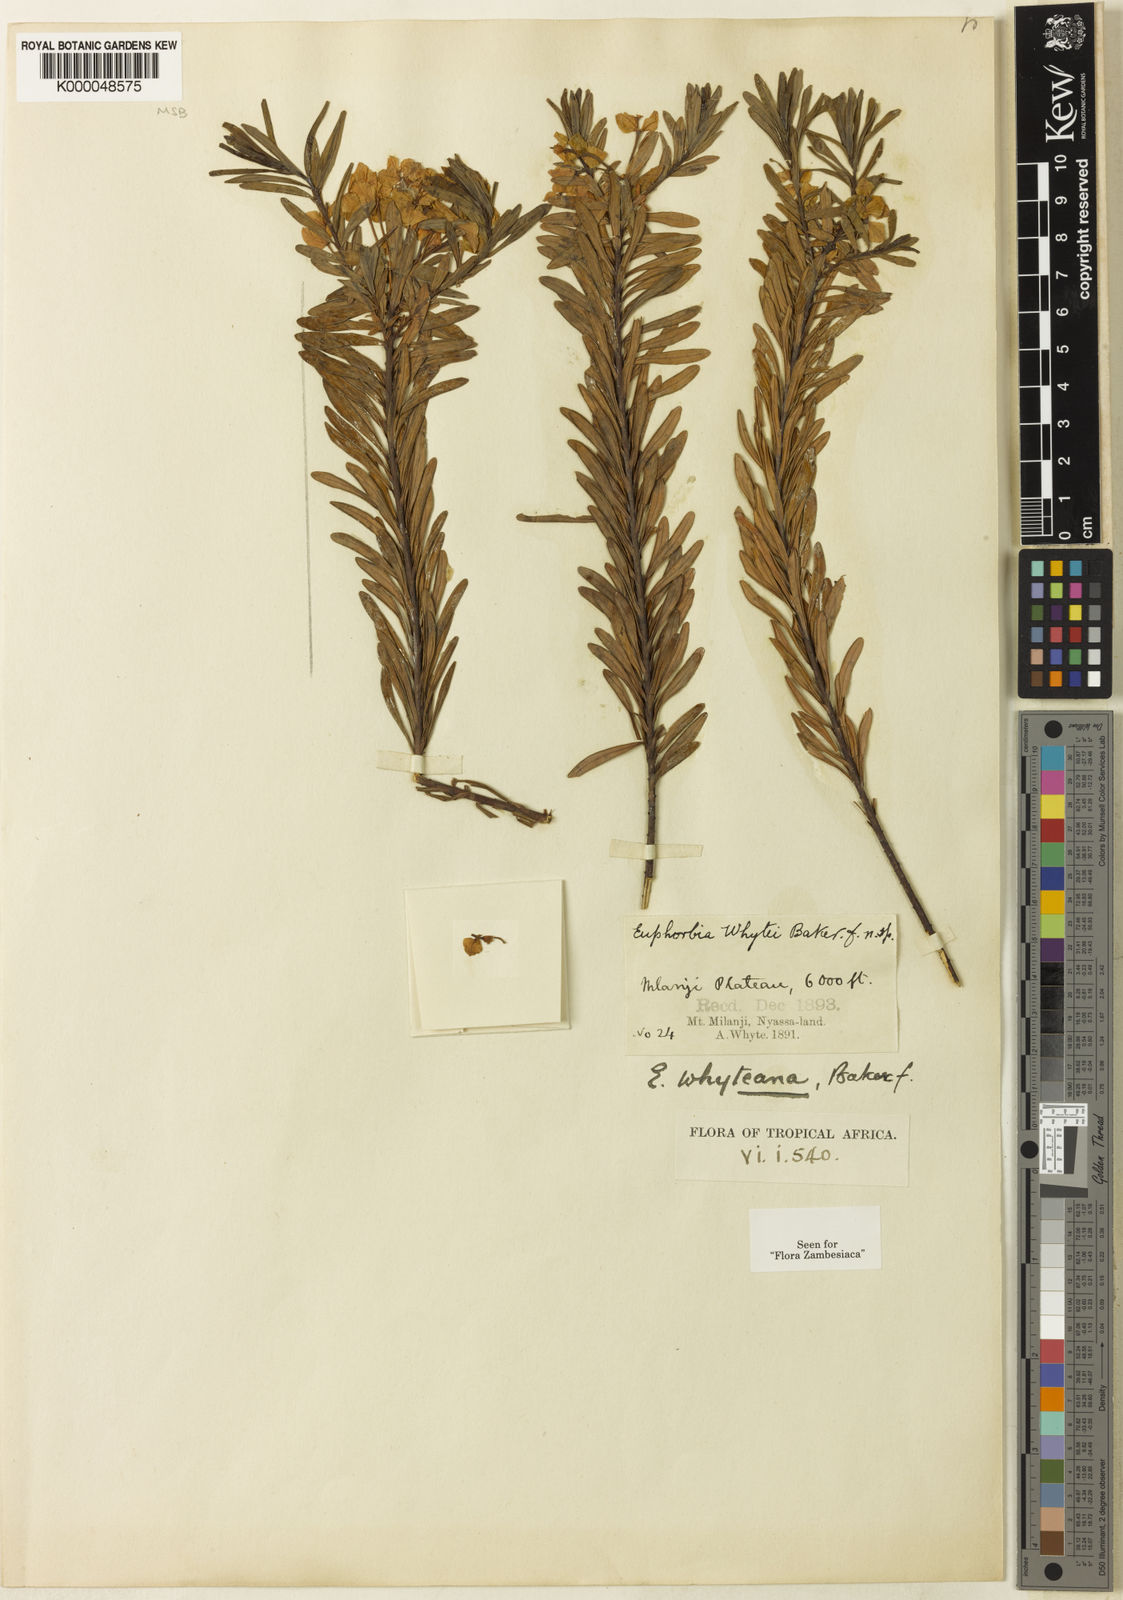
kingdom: Plantae
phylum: Tracheophyta
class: Magnoliopsida
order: Malpighiales
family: Euphorbiaceae
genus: Euphorbia
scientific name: Euphorbia whyteana
